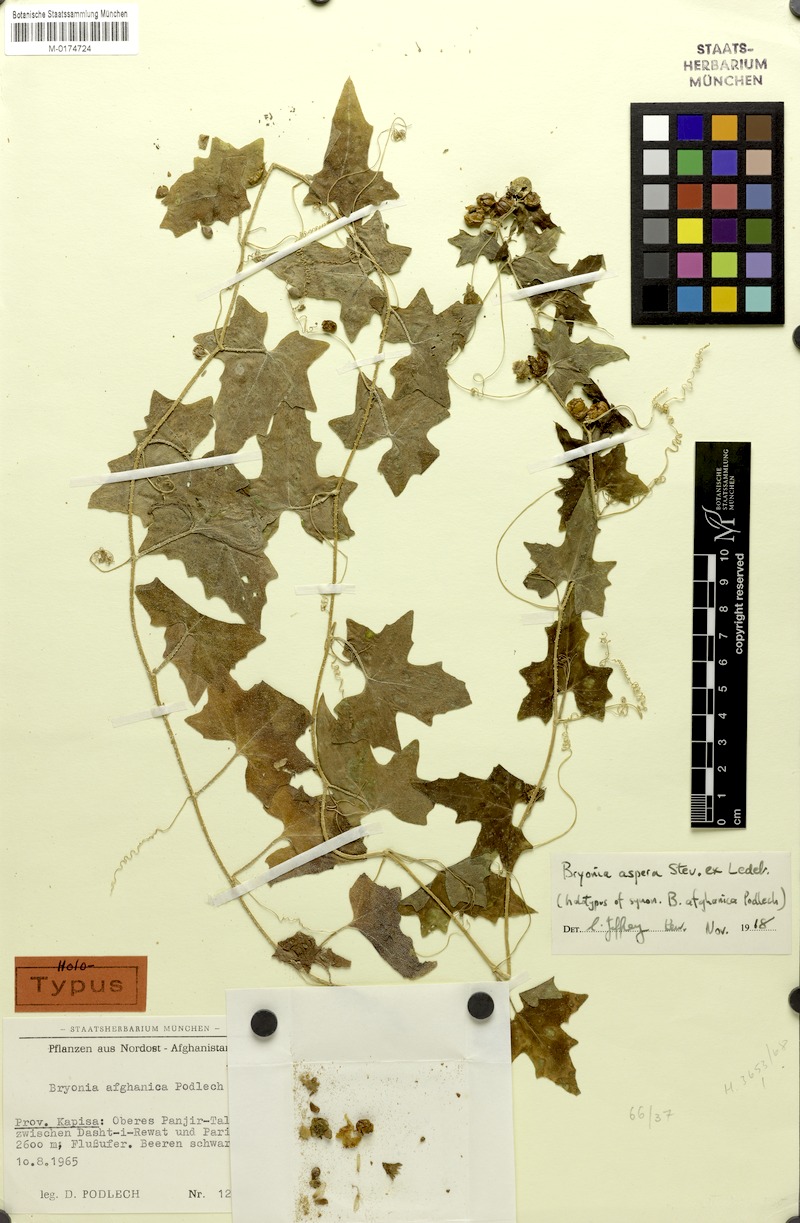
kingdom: Plantae
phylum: Tracheophyta
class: Magnoliopsida
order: Cucurbitales
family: Cucurbitaceae
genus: Bryonia
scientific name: Bryonia aspera
